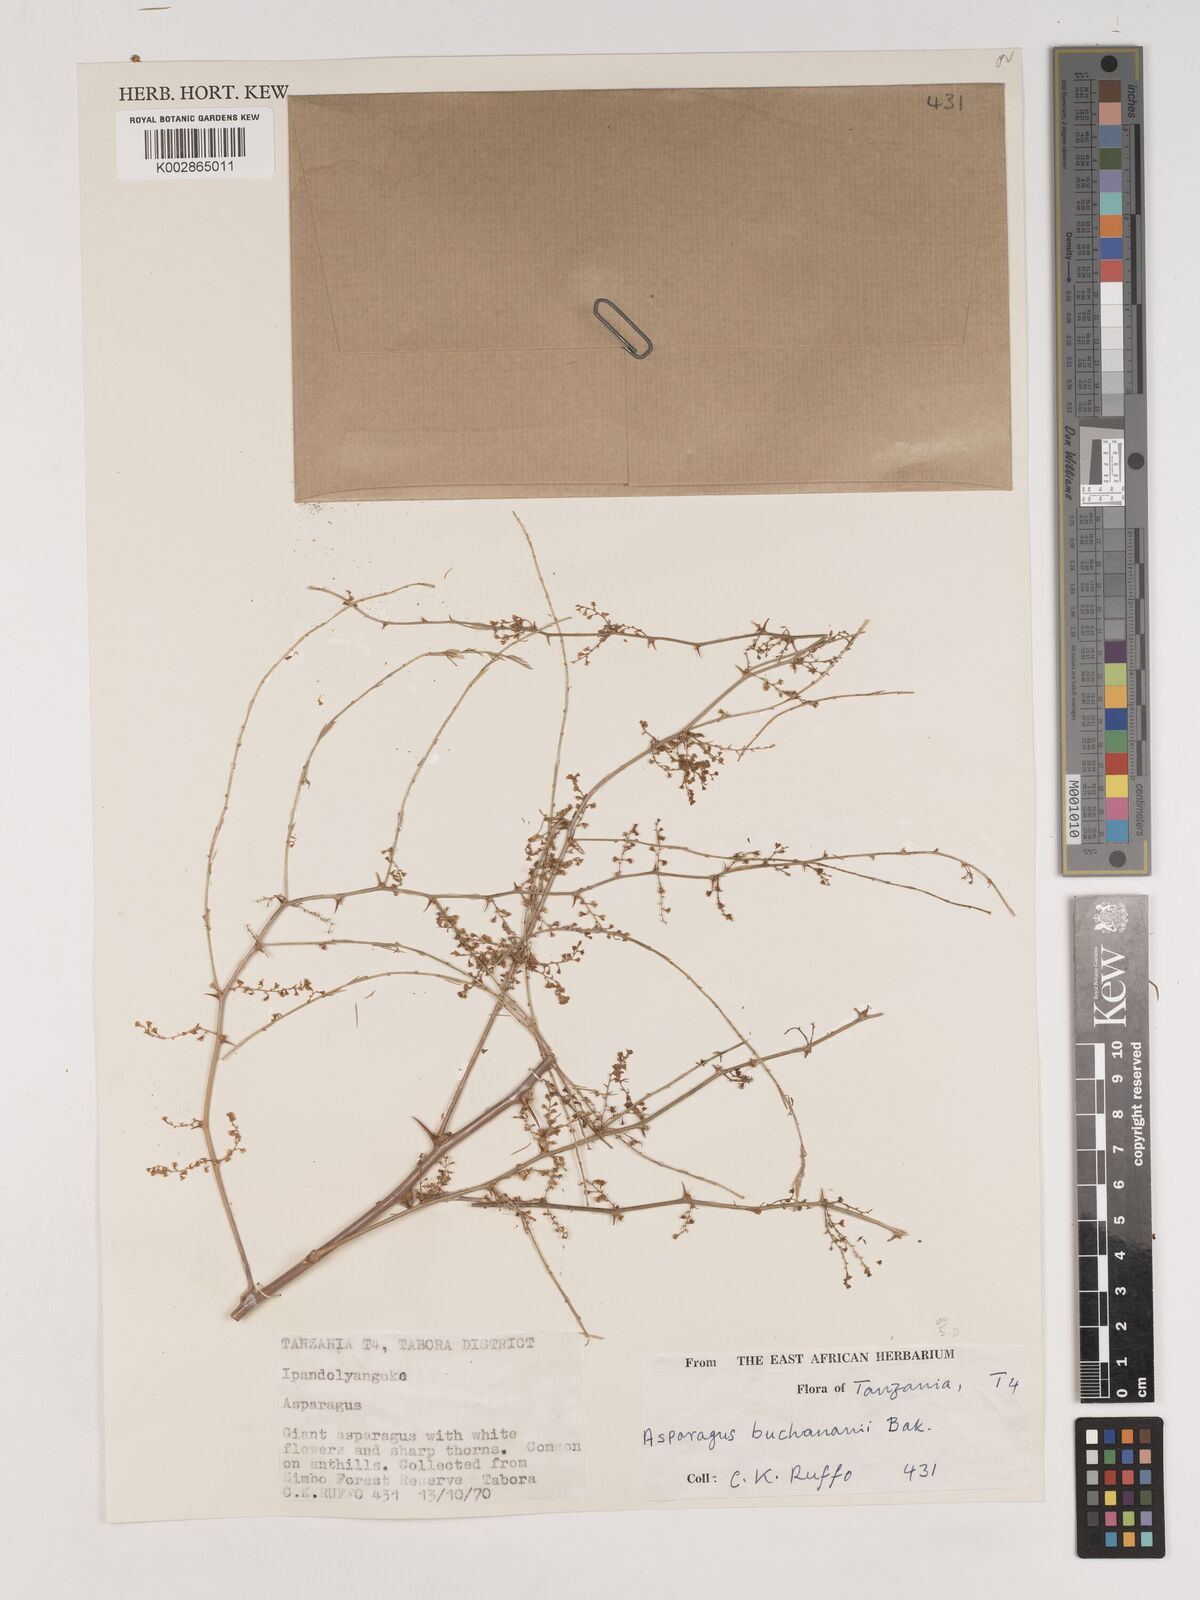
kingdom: Plantae
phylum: Tracheophyta
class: Liliopsida
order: Asparagales
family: Asparagaceae
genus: Asparagus
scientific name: Asparagus buchananii
